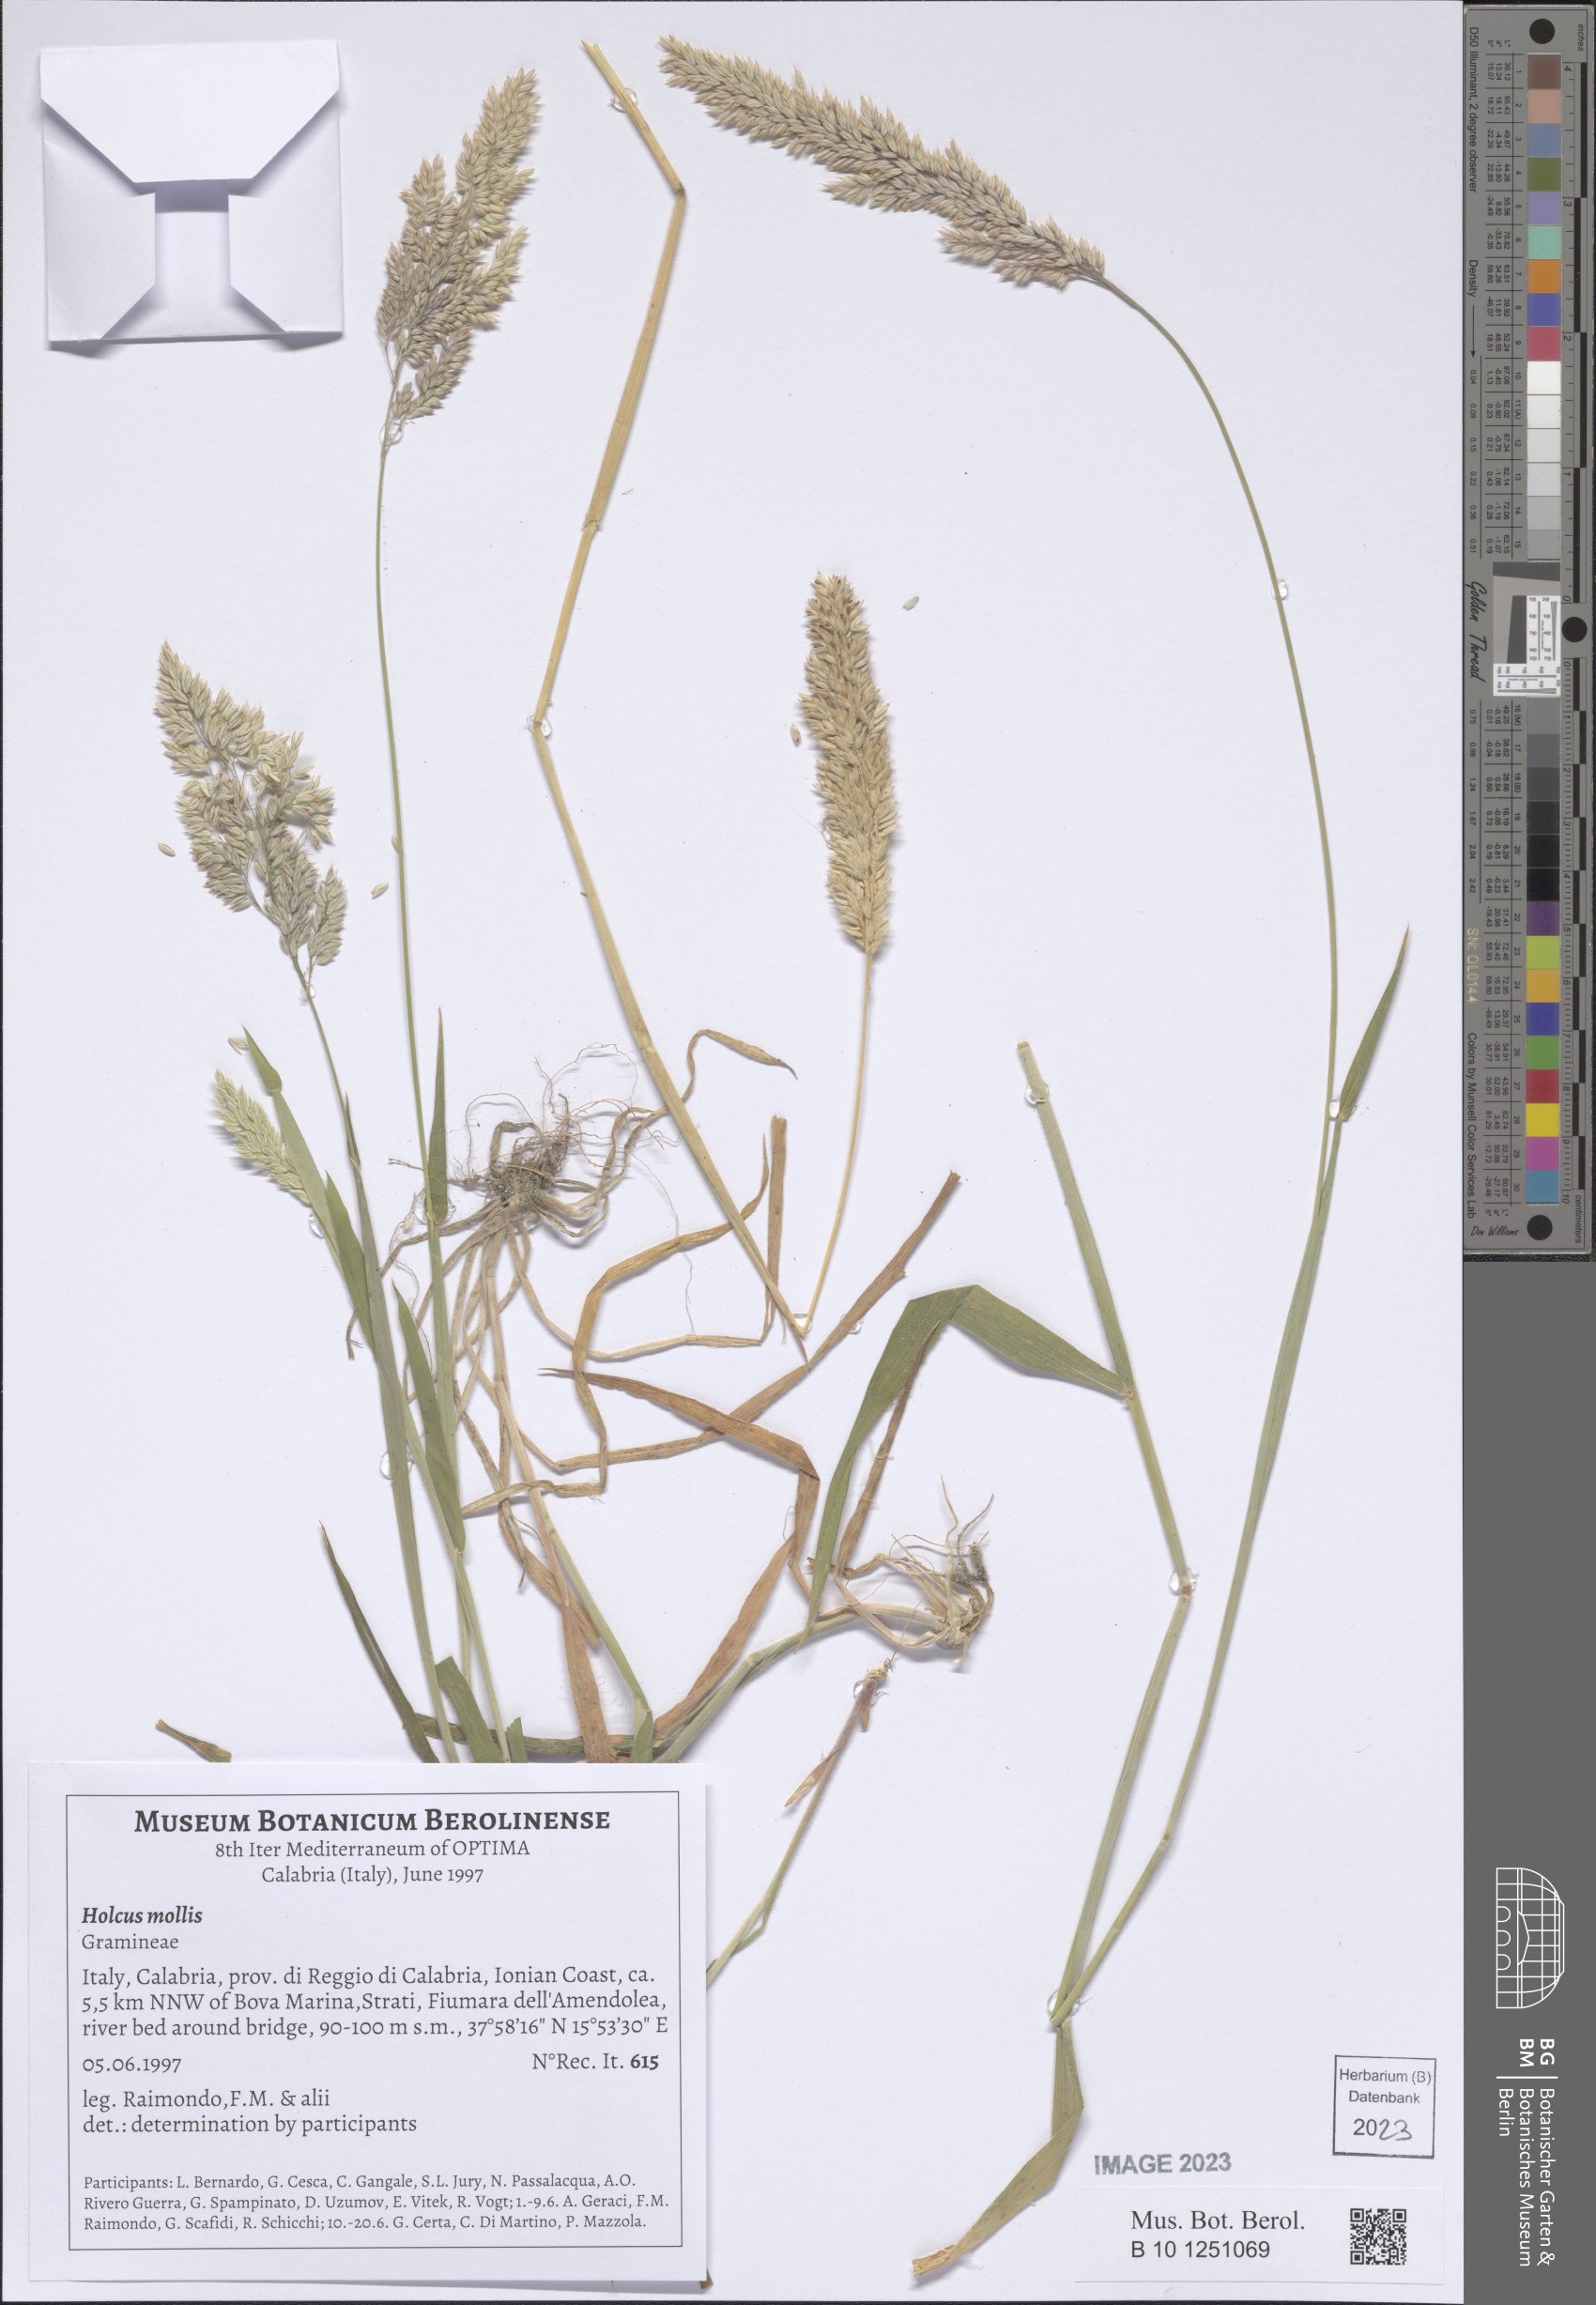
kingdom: Plantae
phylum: Tracheophyta
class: Liliopsida
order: Poales
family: Poaceae
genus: Holcus
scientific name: Holcus mollis
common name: Creeping velvetgrass
